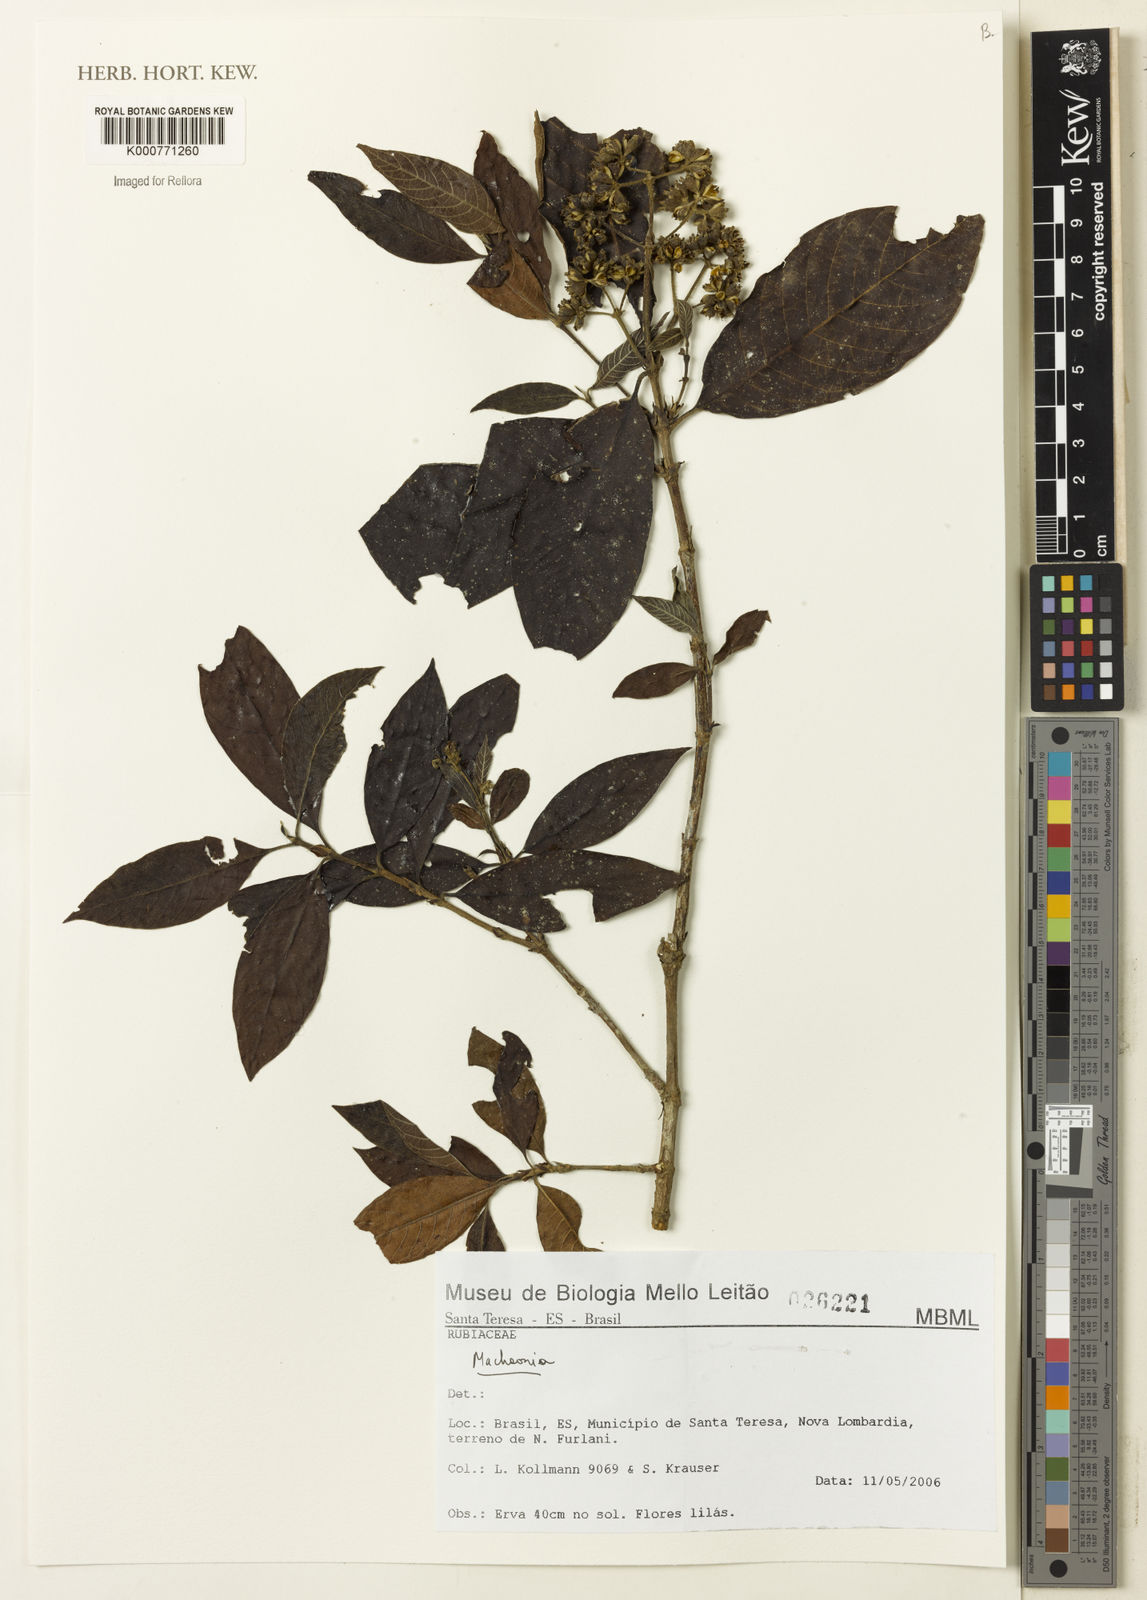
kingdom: Plantae
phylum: Tracheophyta
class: Magnoliopsida
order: Gentianales
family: Rubiaceae
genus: Machaonia
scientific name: Machaonia
